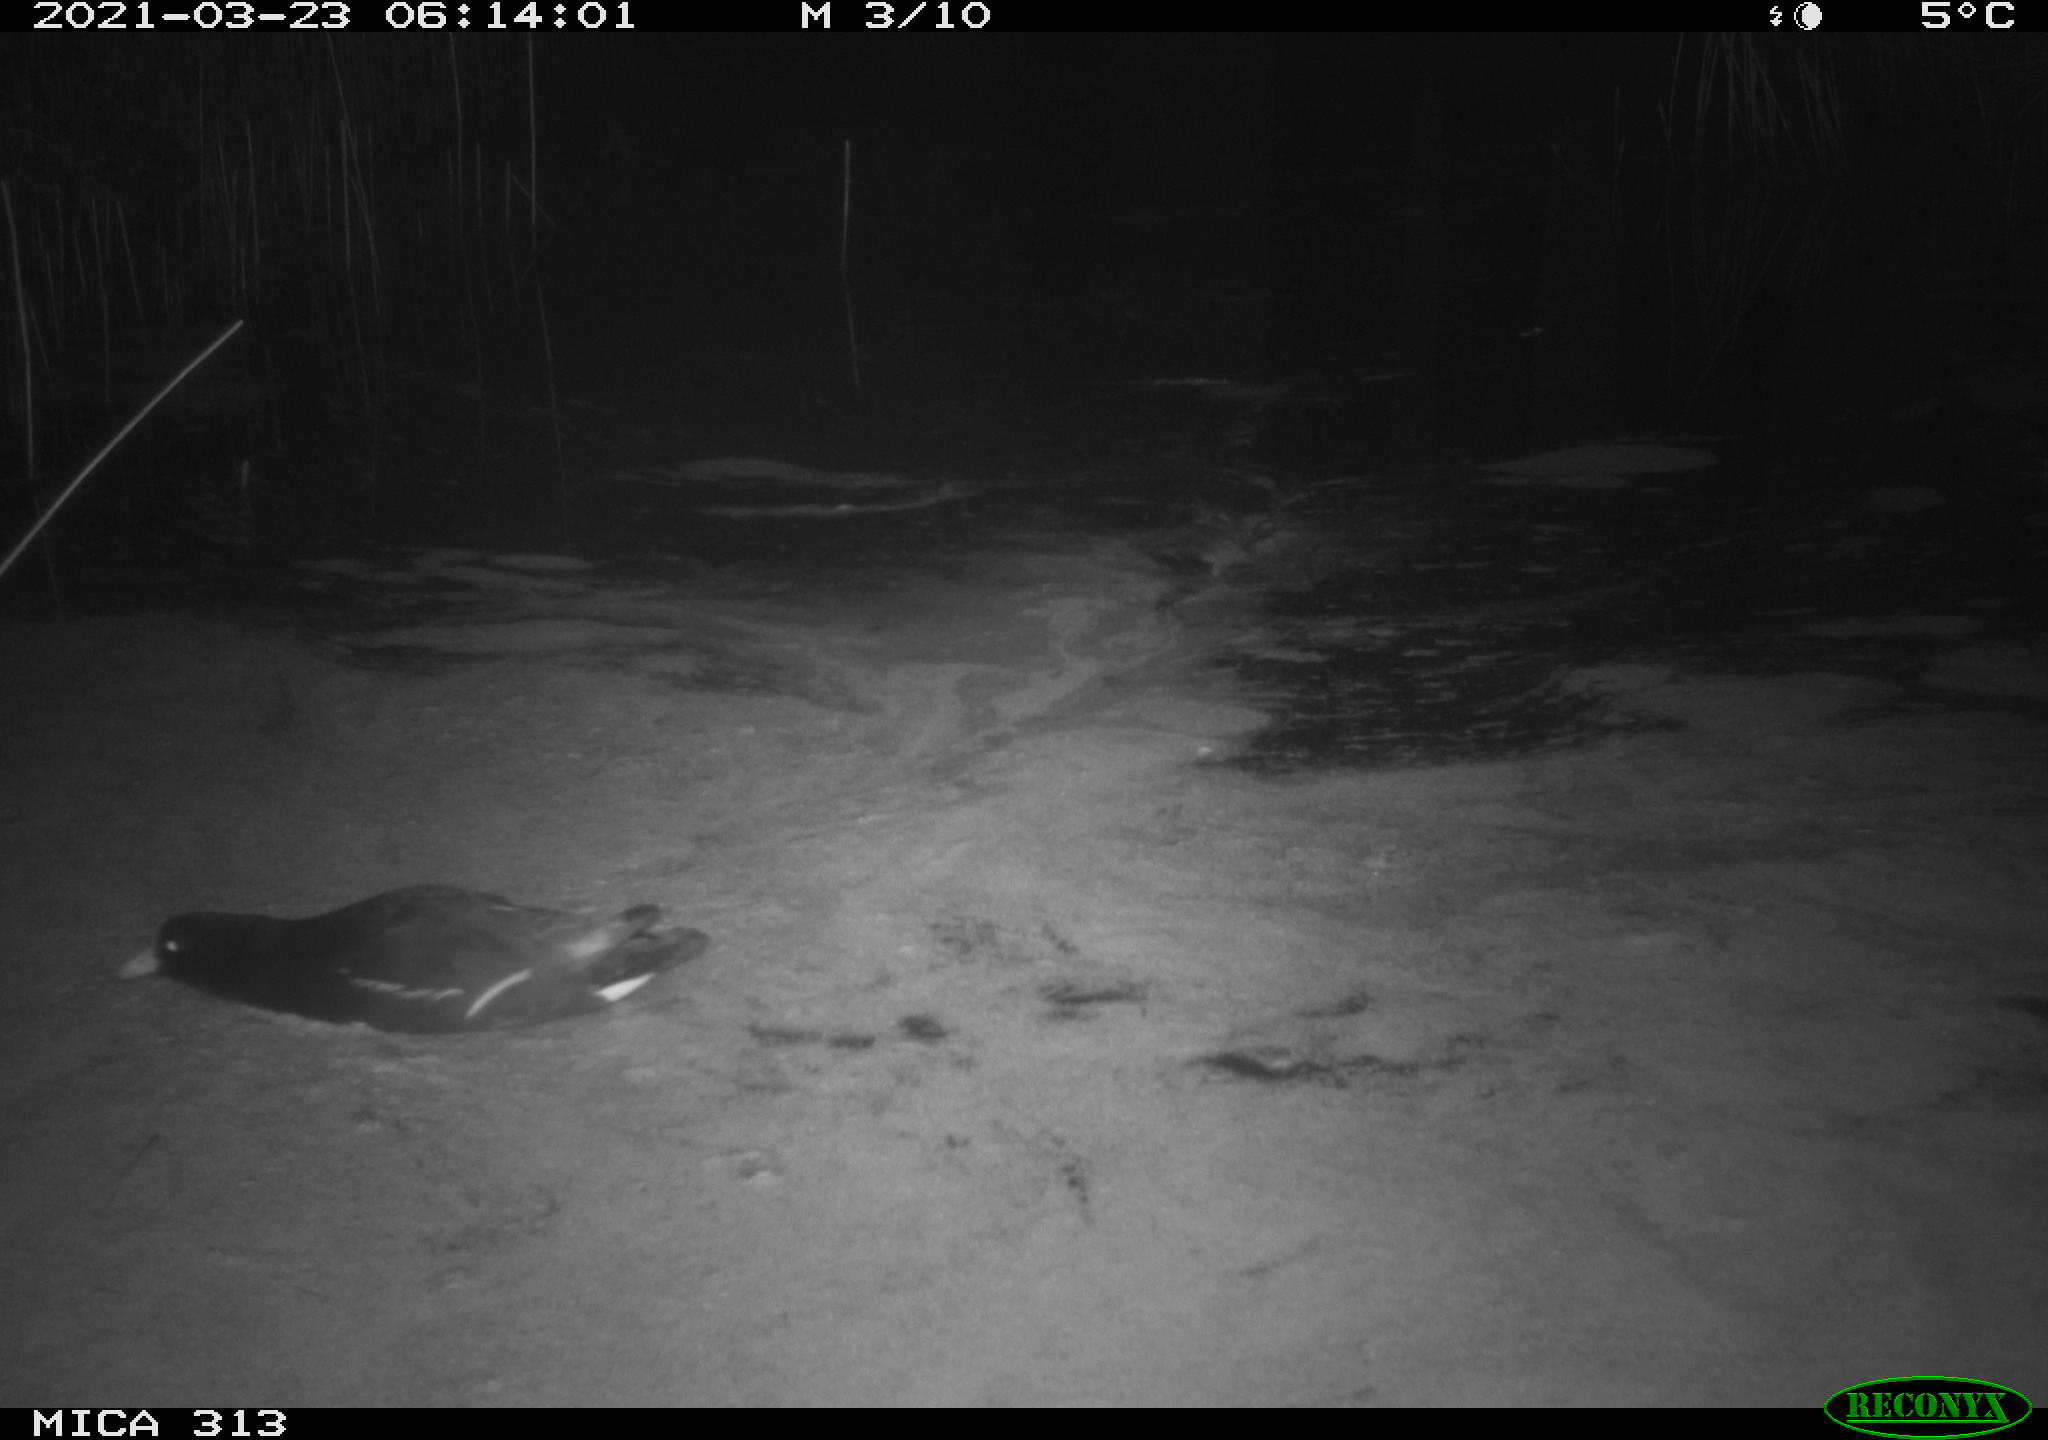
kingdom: Animalia
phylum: Chordata
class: Aves
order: Gruiformes
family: Rallidae
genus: Gallinula
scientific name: Gallinula chloropus
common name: Common moorhen
